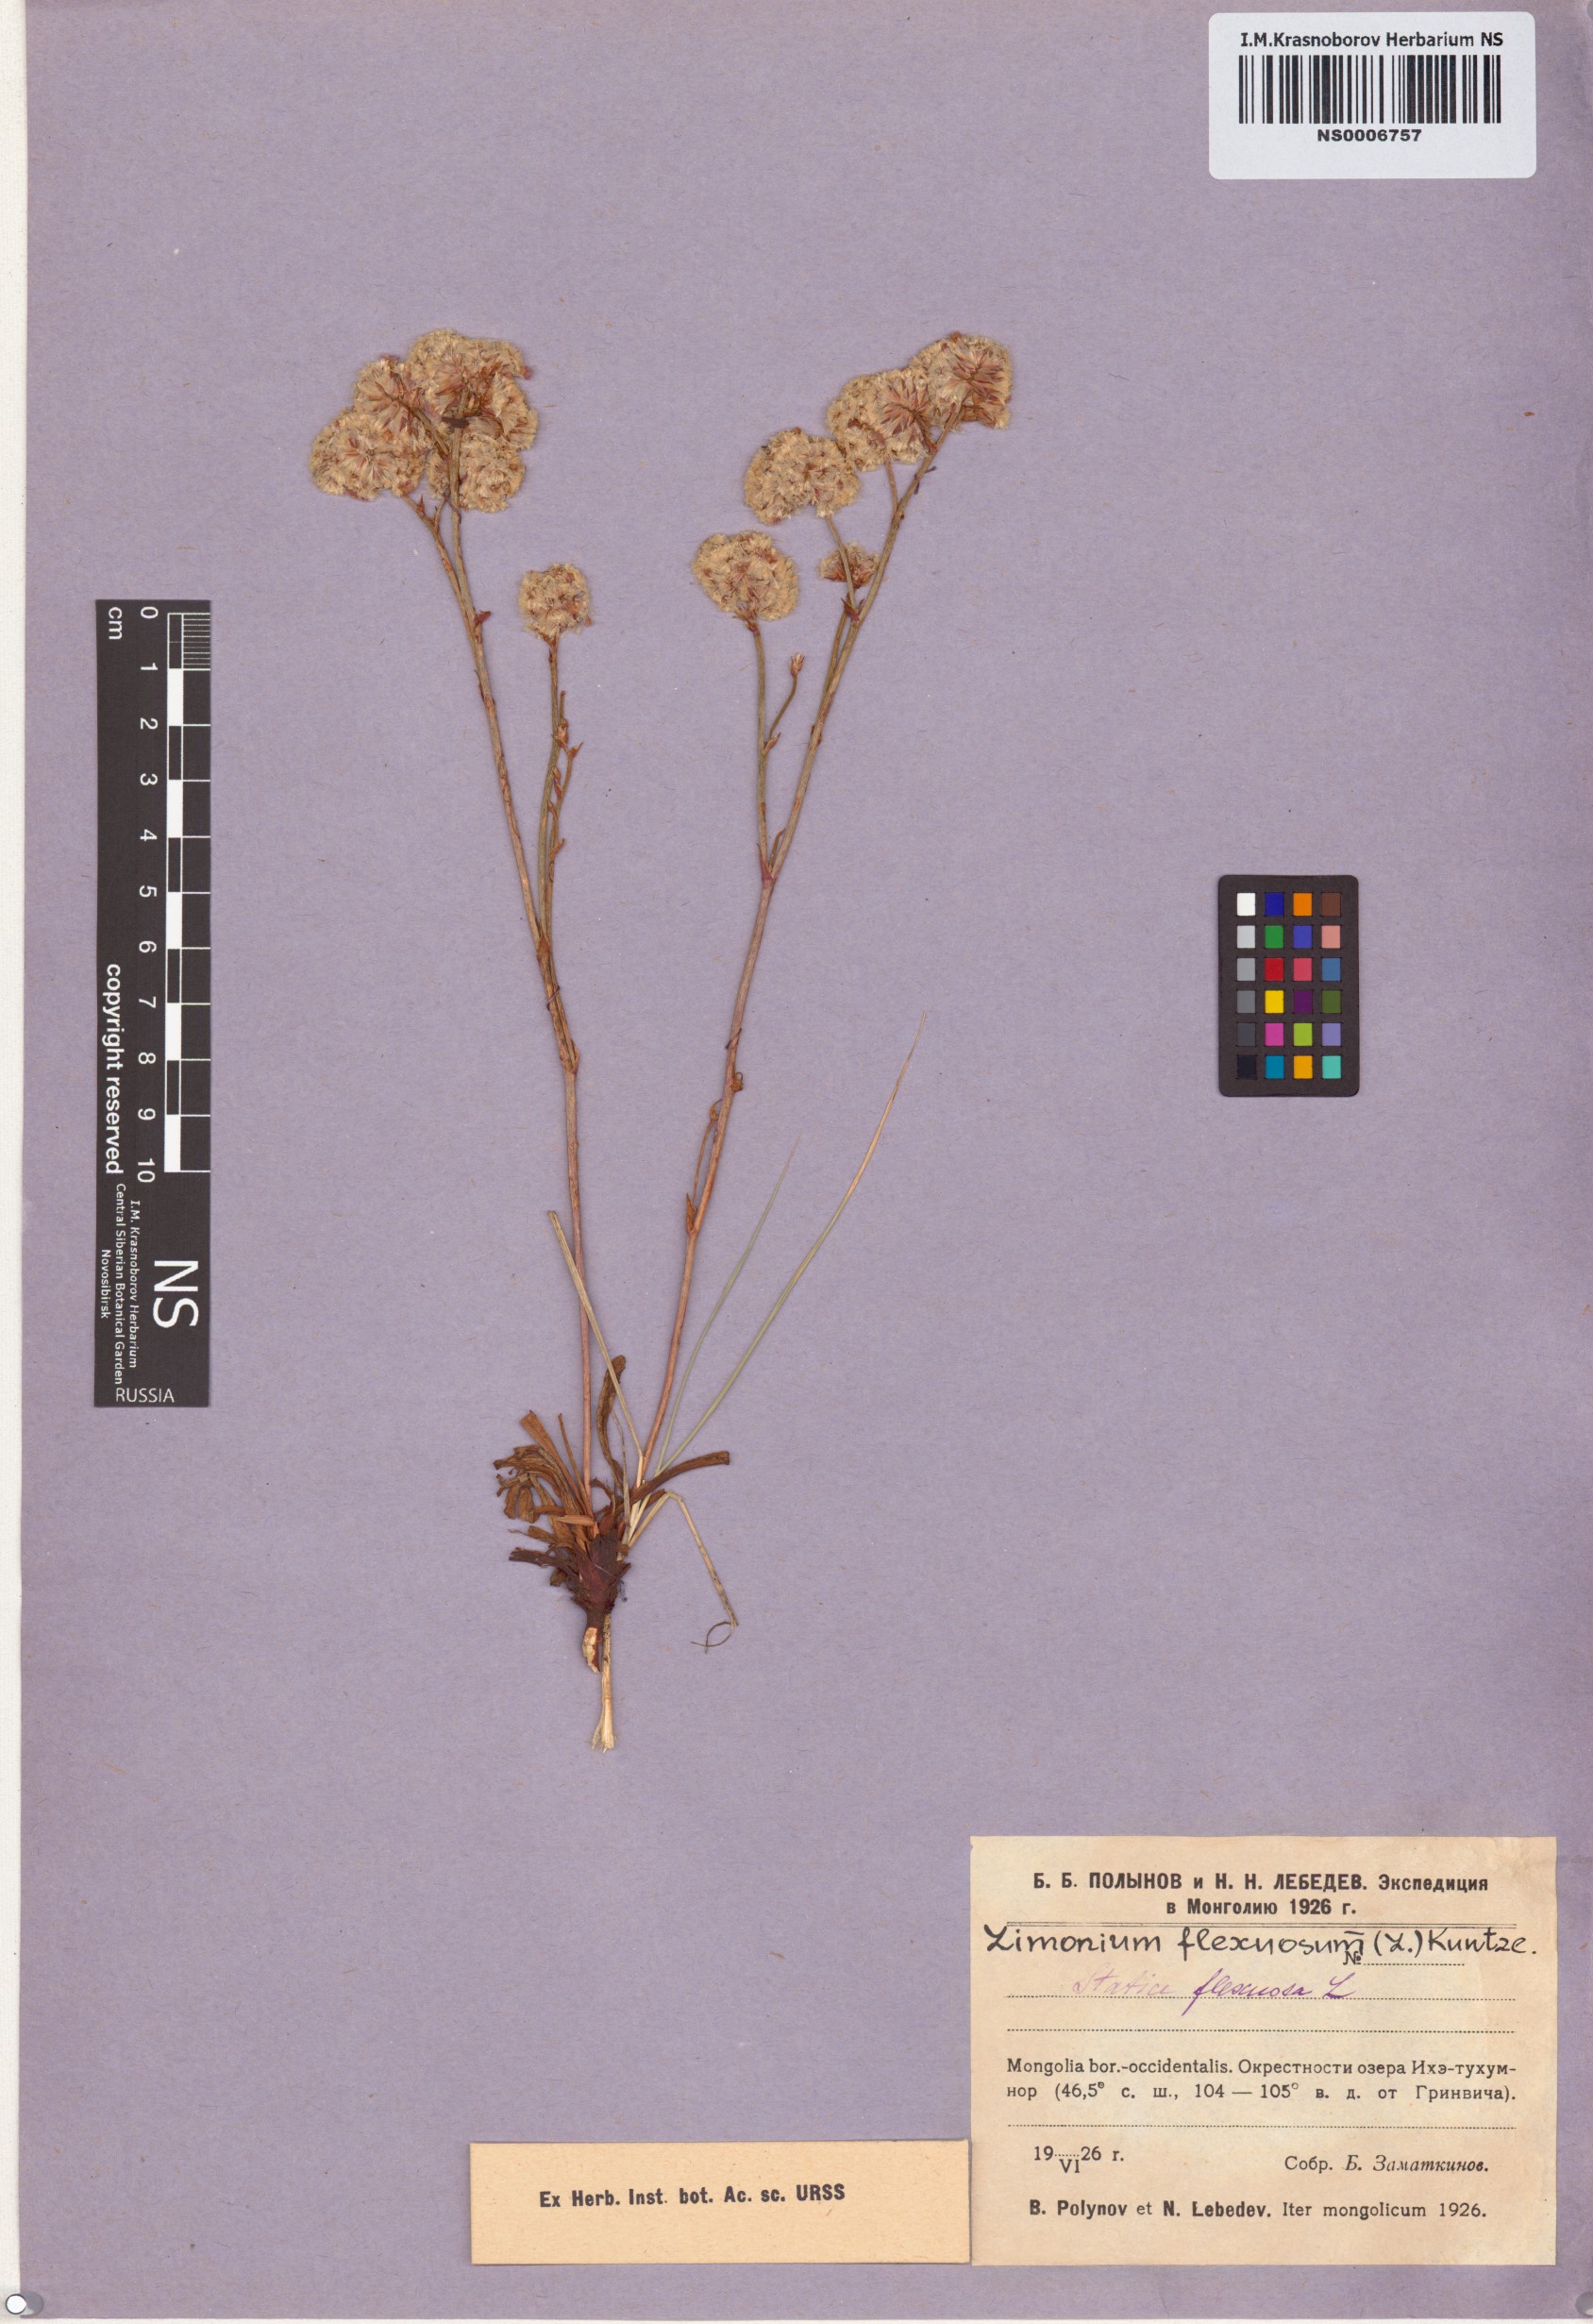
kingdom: Plantae
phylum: Tracheophyta
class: Magnoliopsida
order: Caryophyllales
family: Plumbaginaceae
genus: Limonium
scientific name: Limonium flexuosum
